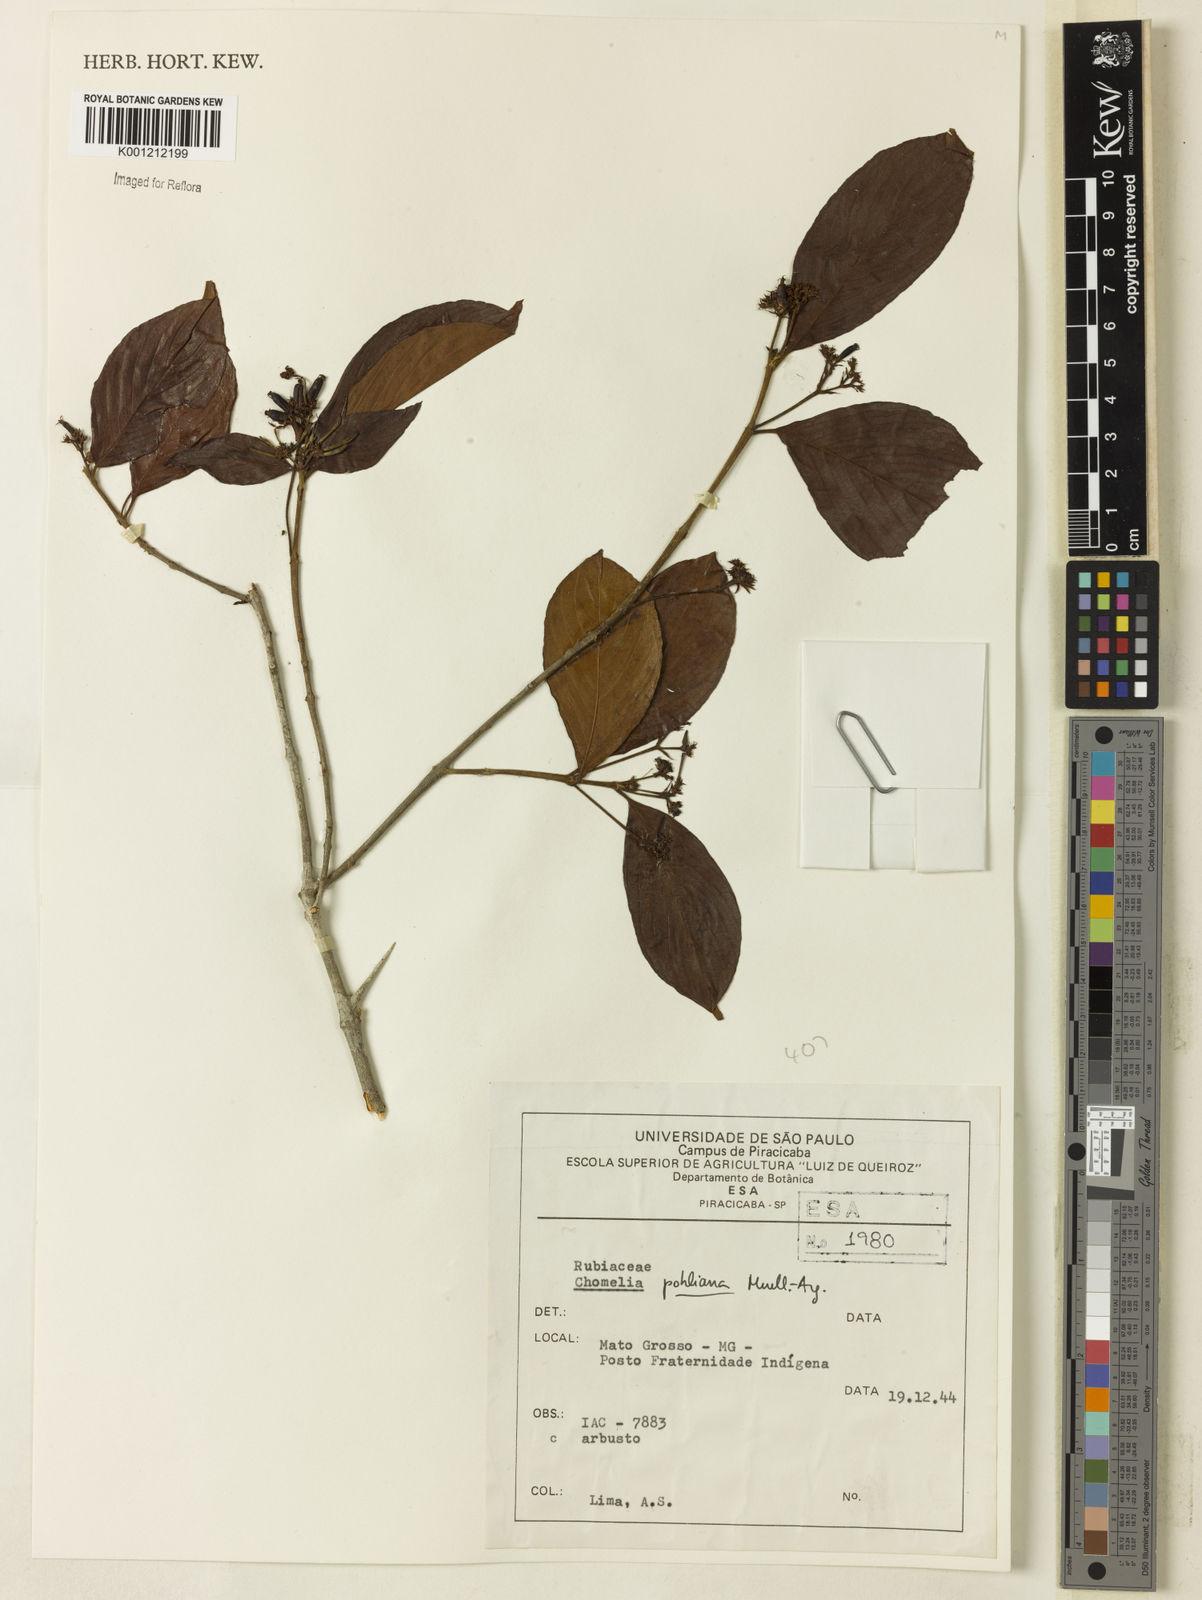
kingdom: Plantae
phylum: Tracheophyta
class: Magnoliopsida
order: Gentianales
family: Rubiaceae
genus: Chomelia
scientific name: Chomelia
